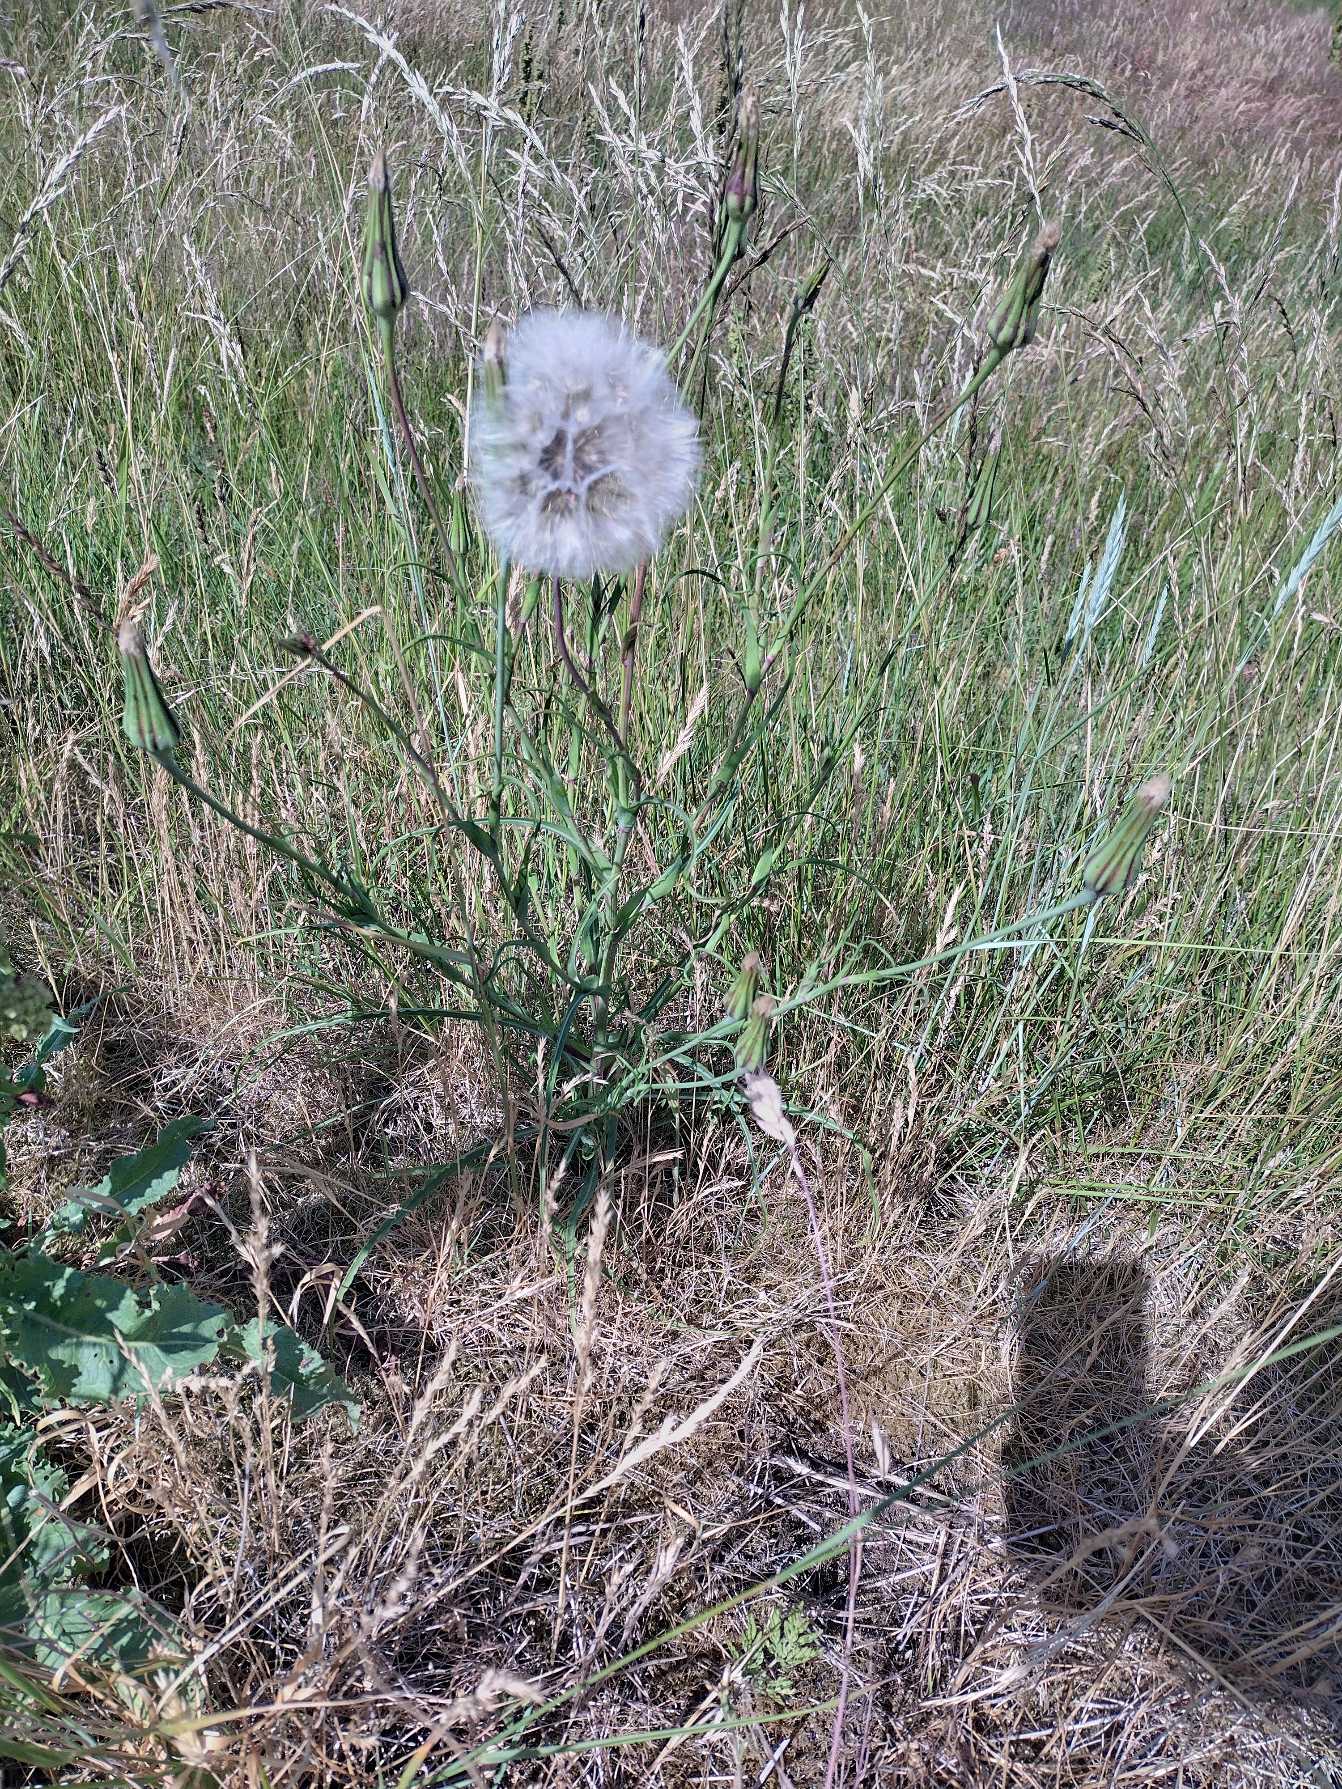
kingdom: Plantae
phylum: Tracheophyta
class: Magnoliopsida
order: Asterales
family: Asteraceae
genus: Tragopogon
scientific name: Tragopogon minor
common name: Småkronet gedeskæg
